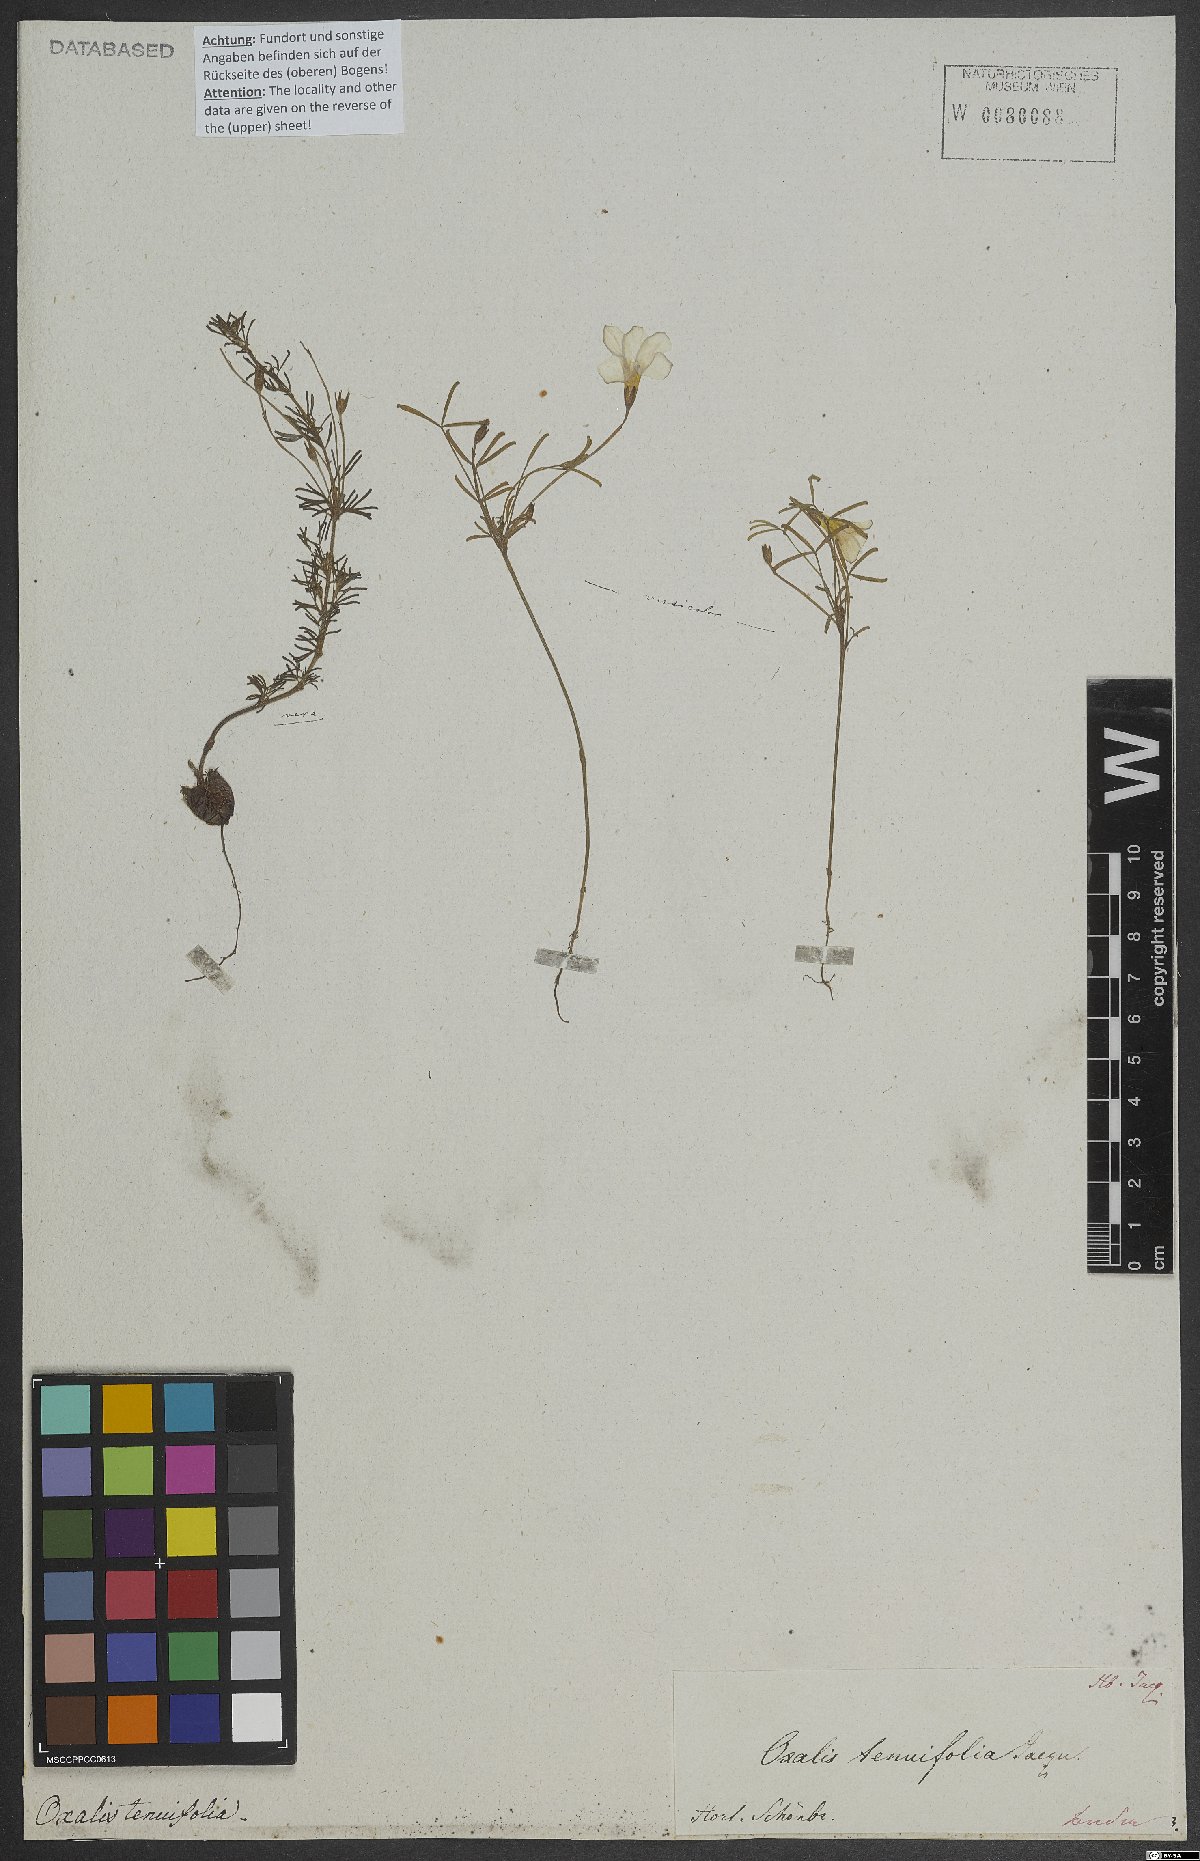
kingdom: Plantae
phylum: Tracheophyta
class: Magnoliopsida
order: Oxalidales
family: Oxalidaceae
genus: Oxalis
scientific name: Oxalis tenuifolia
